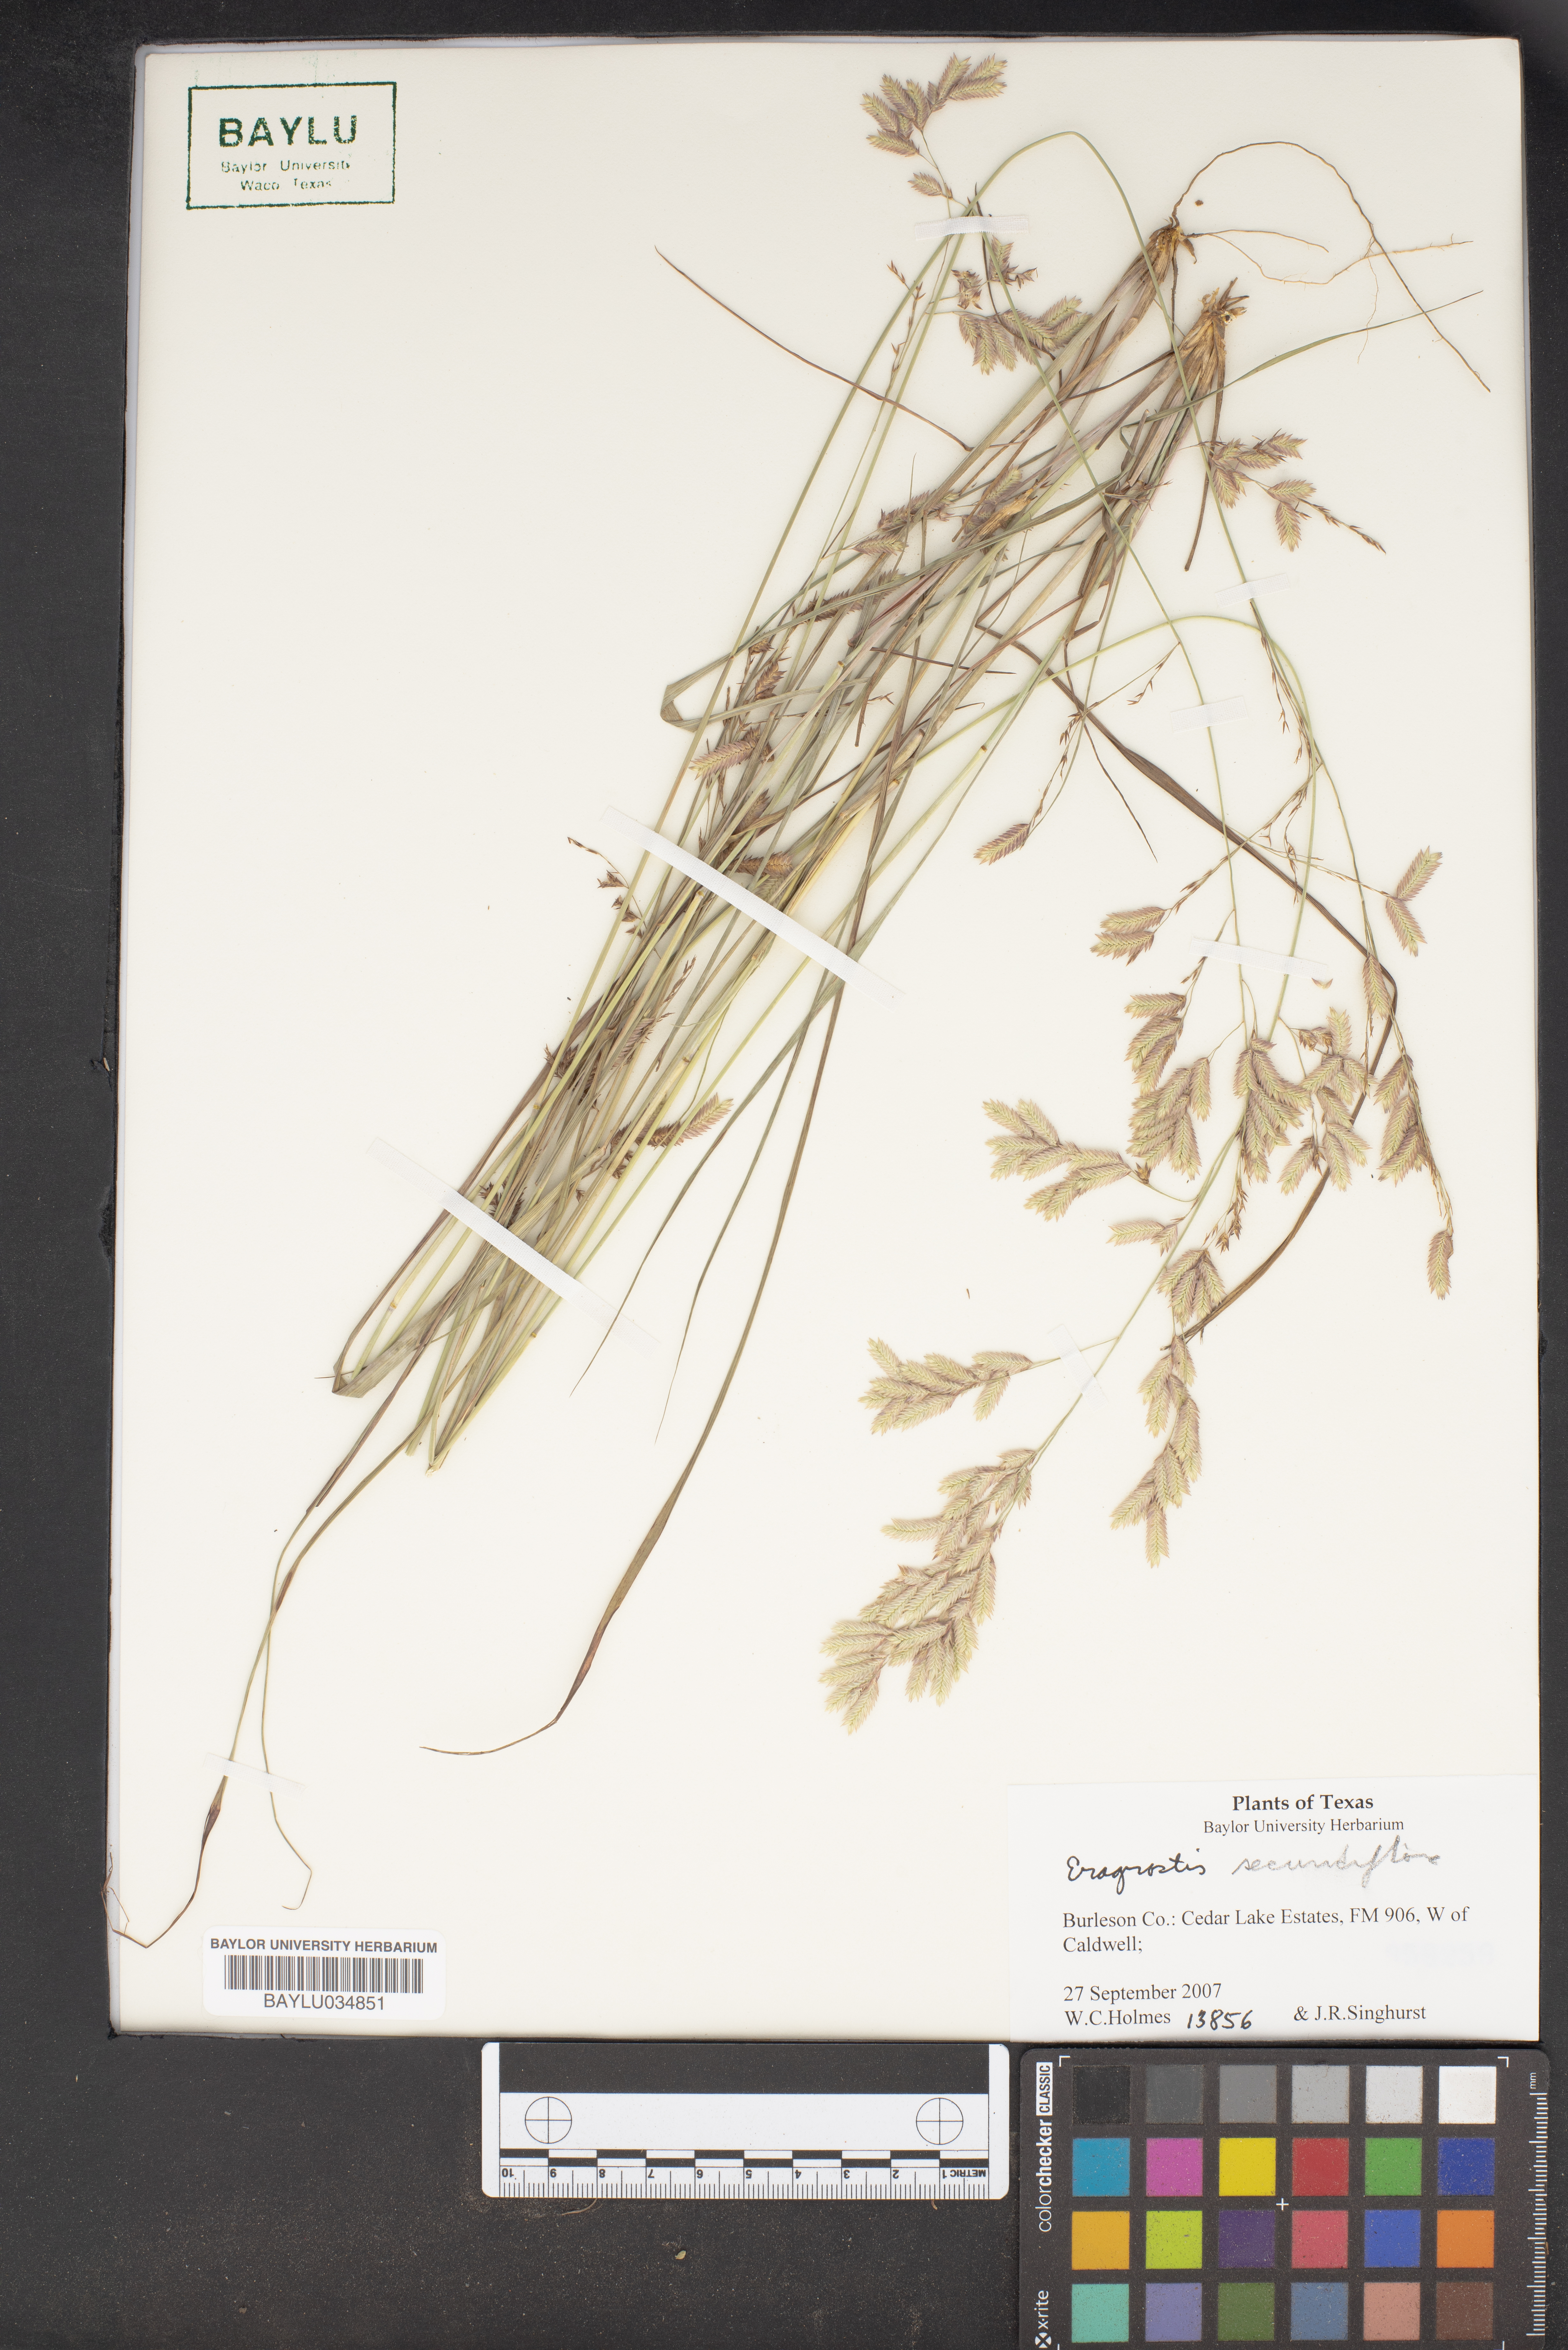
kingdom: Plantae
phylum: Tracheophyta
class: Liliopsida
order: Poales
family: Poaceae
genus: Eragrostis
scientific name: Eragrostis secundiflora
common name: Red love grass
